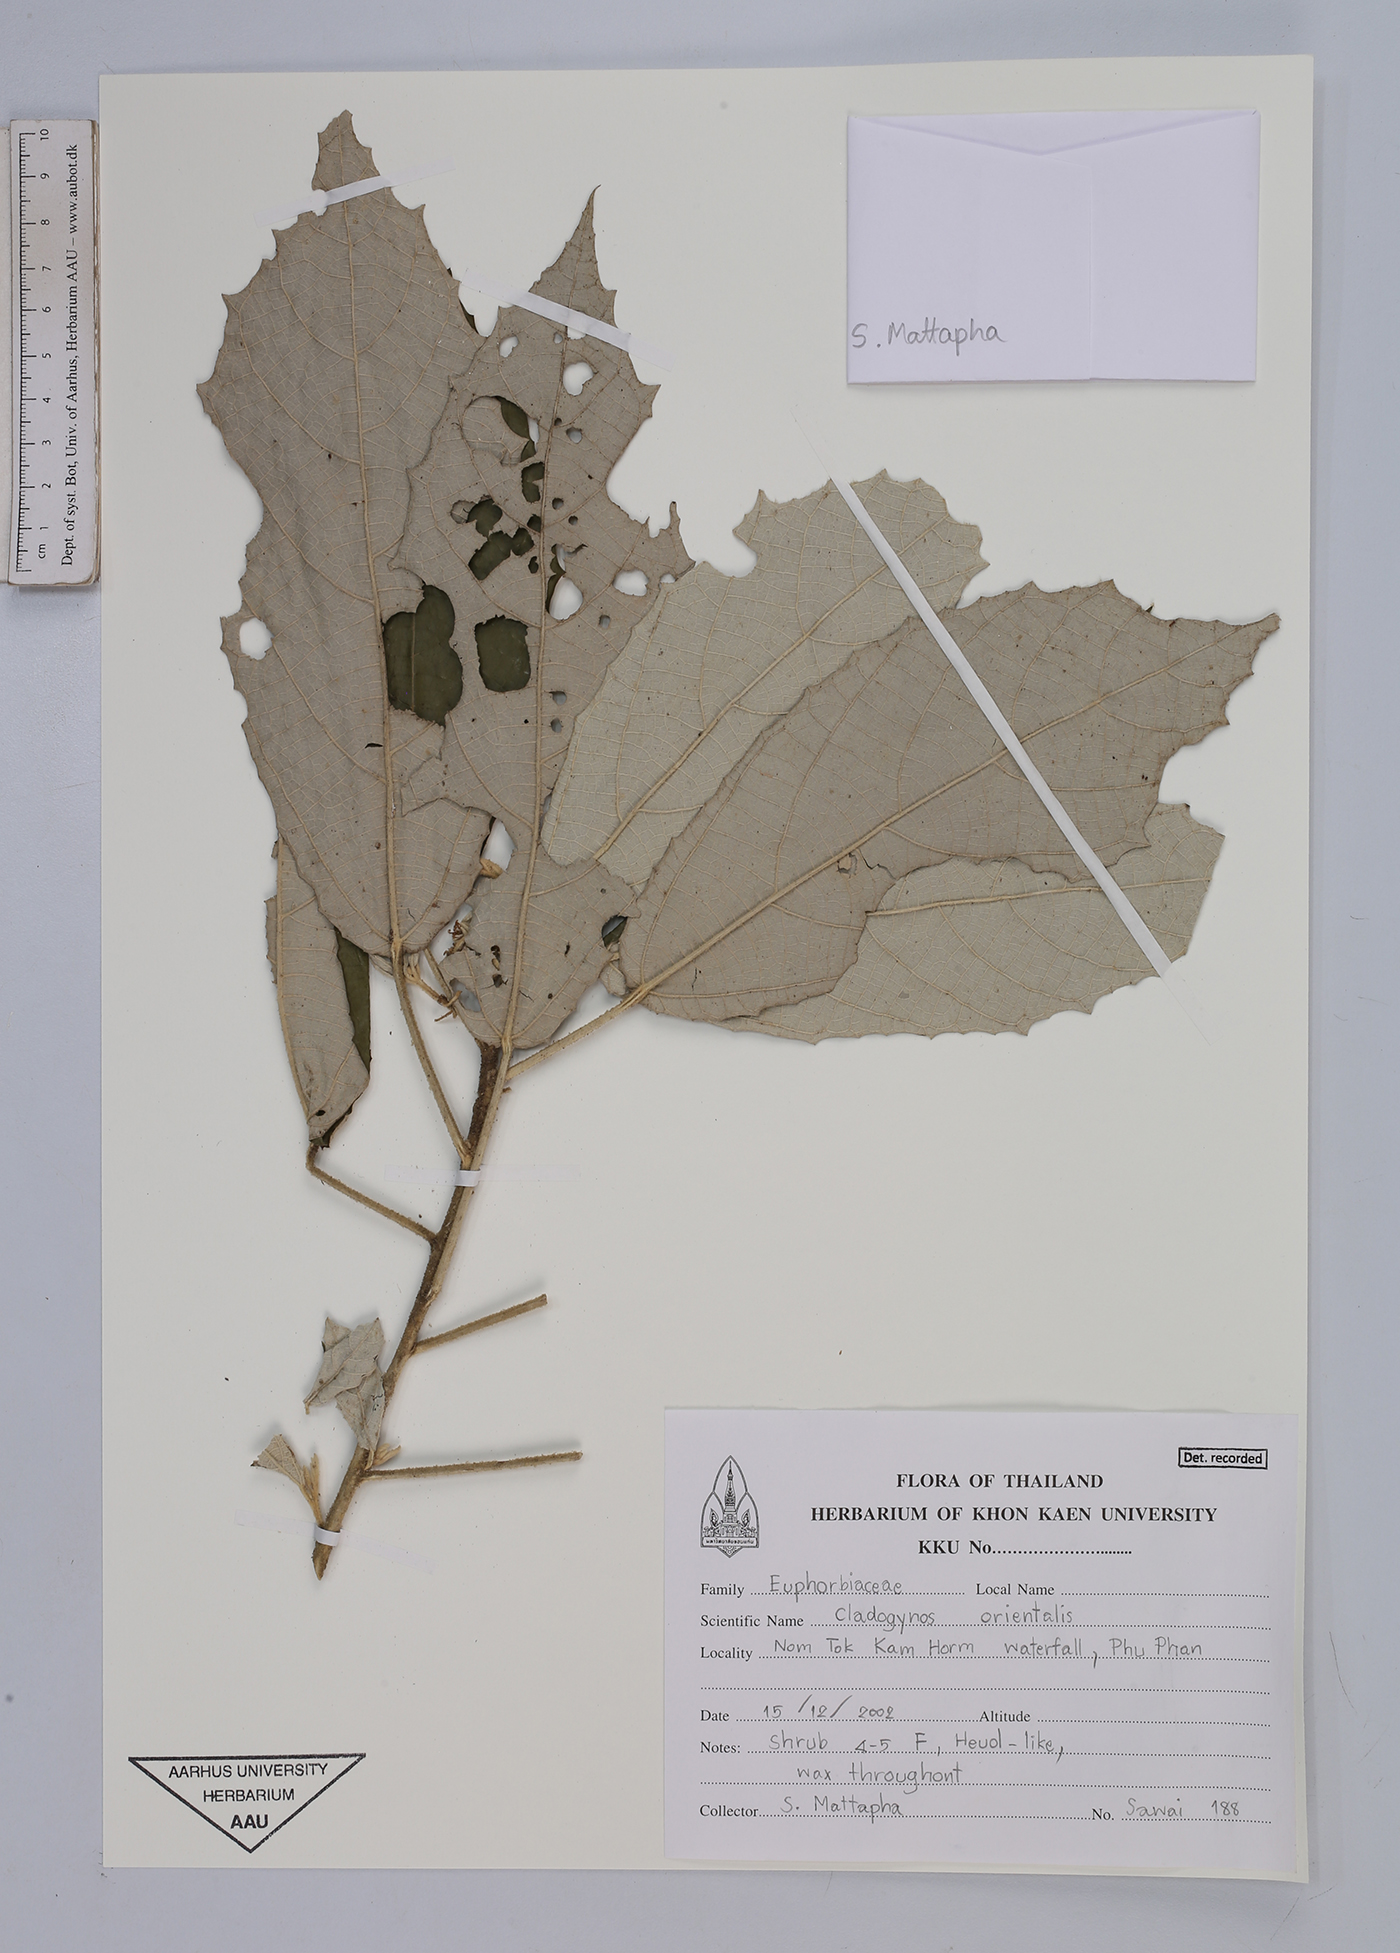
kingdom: Plantae
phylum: Tracheophyta
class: Magnoliopsida
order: Malpighiales
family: Euphorbiaceae
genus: Cladogynos
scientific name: Cladogynos orientalis
